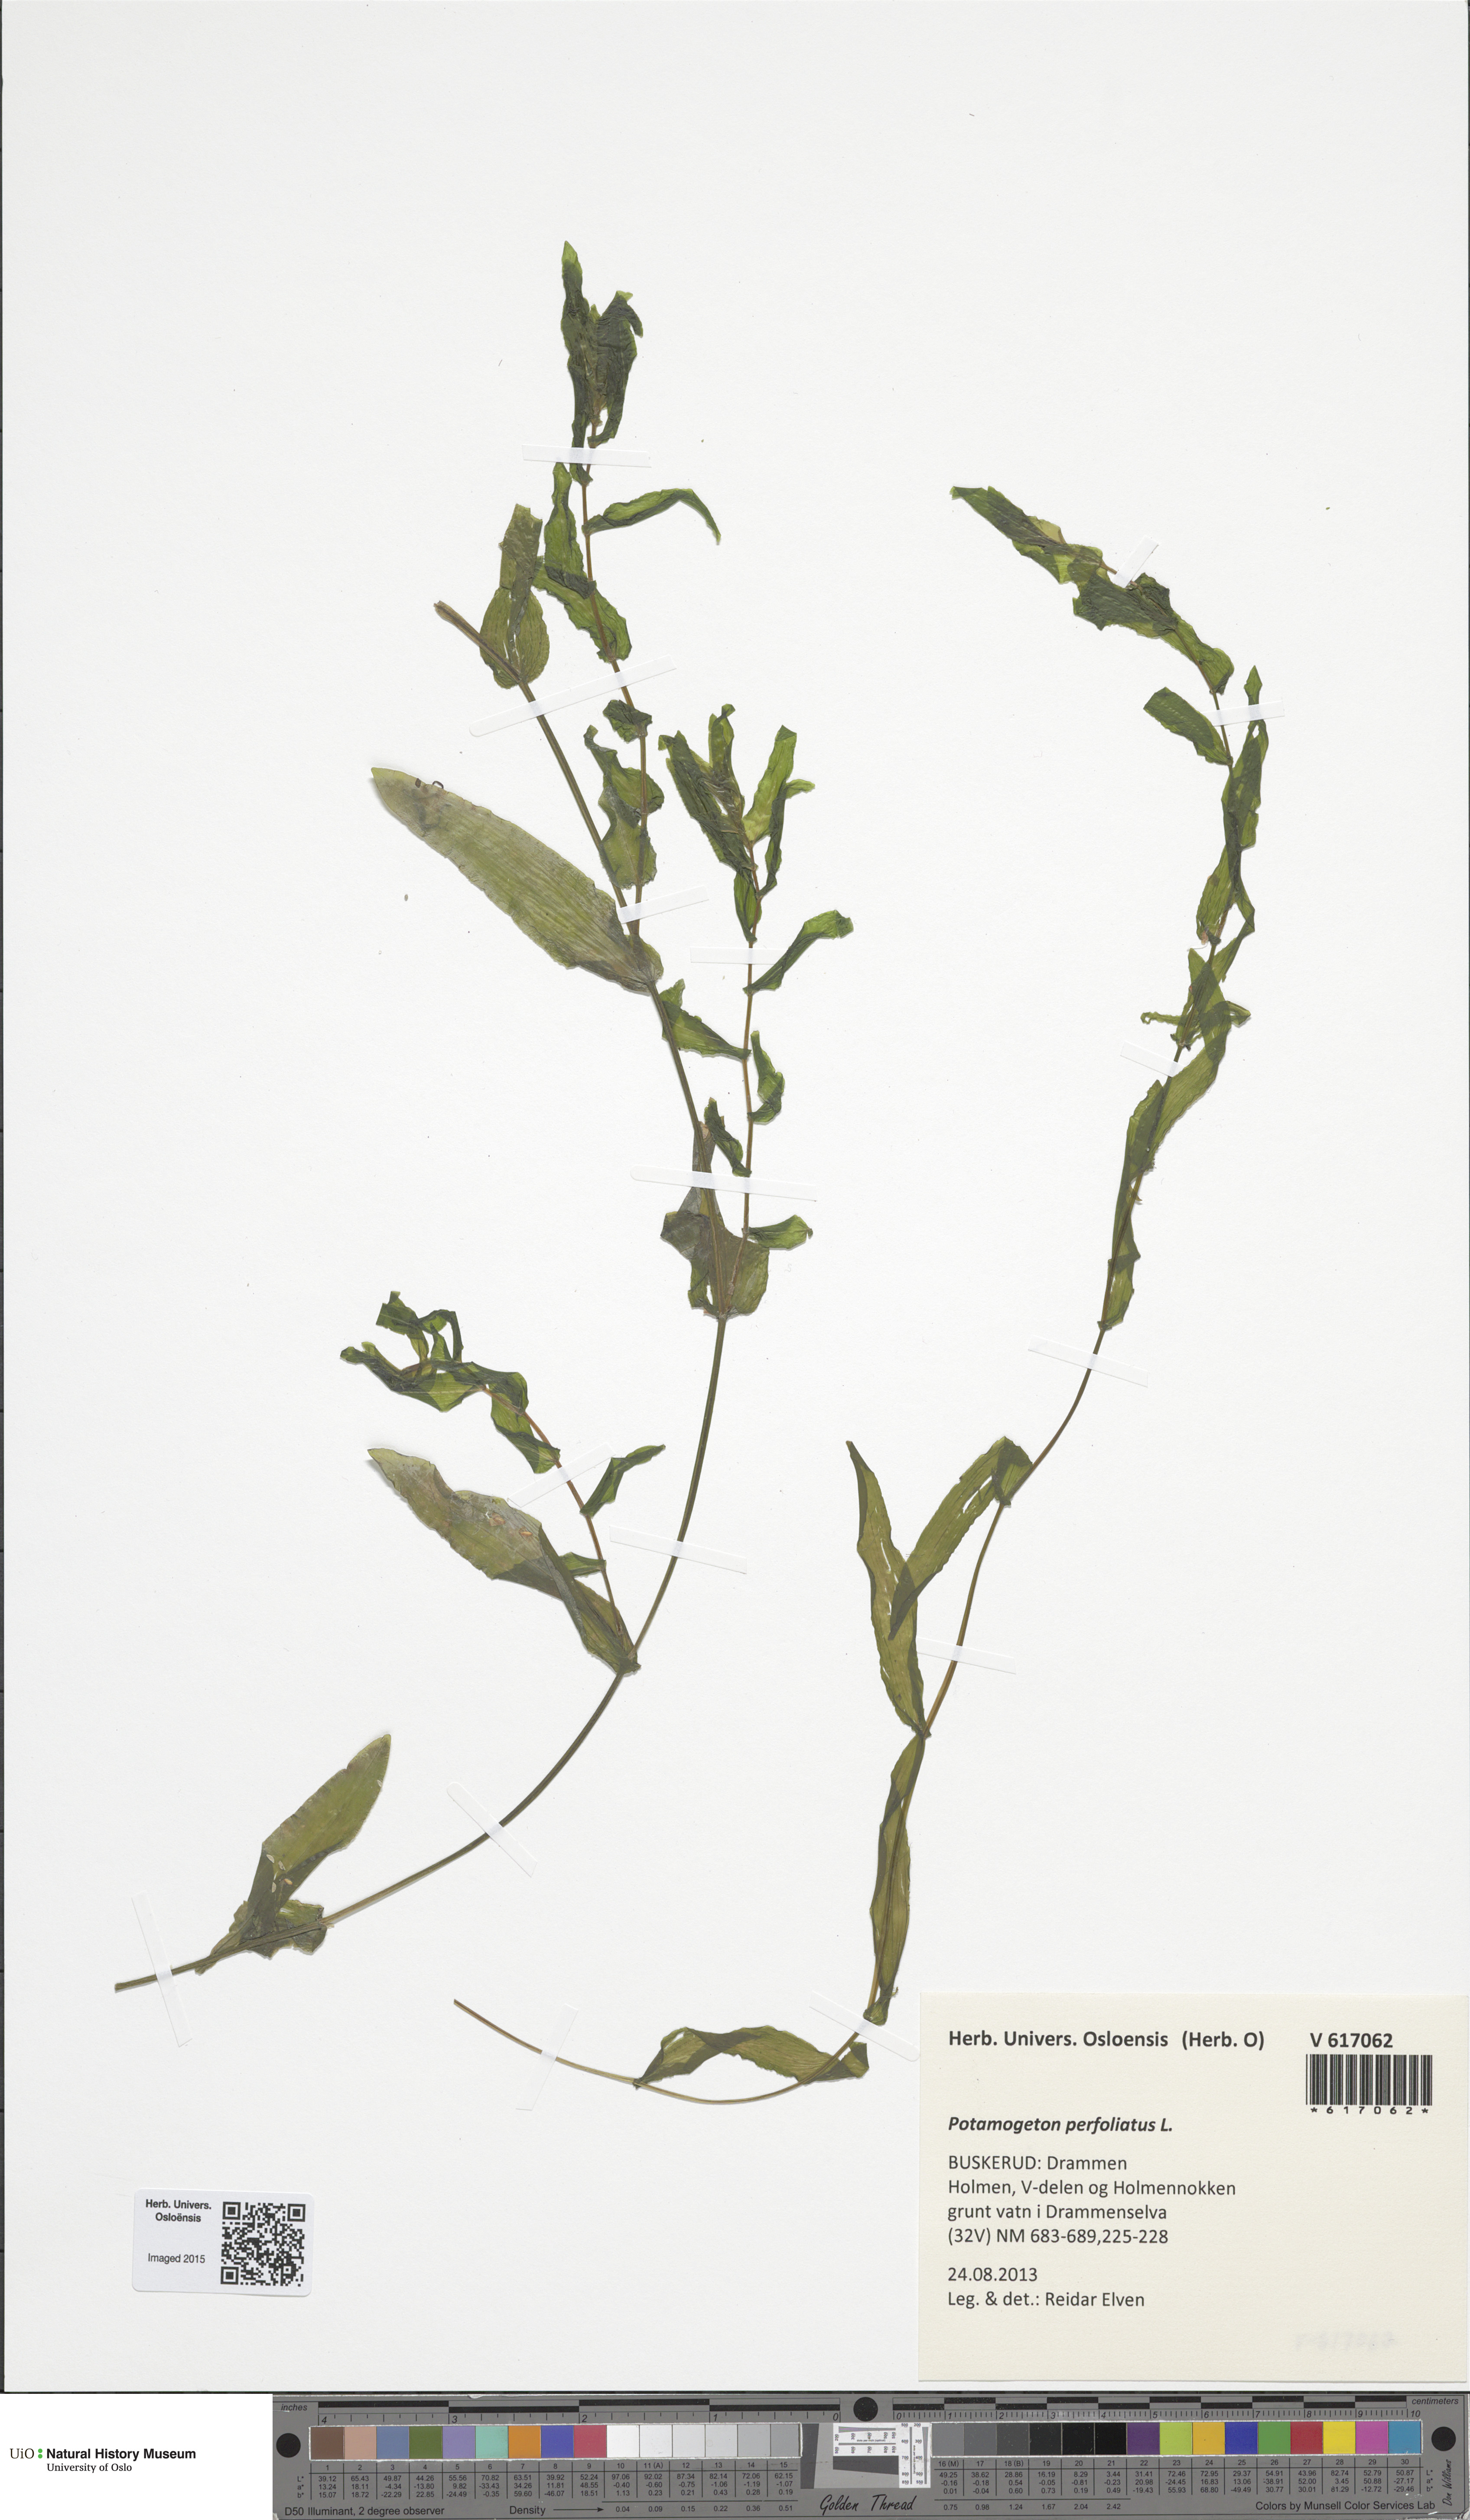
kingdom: Plantae
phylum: Tracheophyta
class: Liliopsida
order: Alismatales
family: Potamogetonaceae
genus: Potamogeton
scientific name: Potamogeton perfoliatus
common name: Perfoliate pondweed
